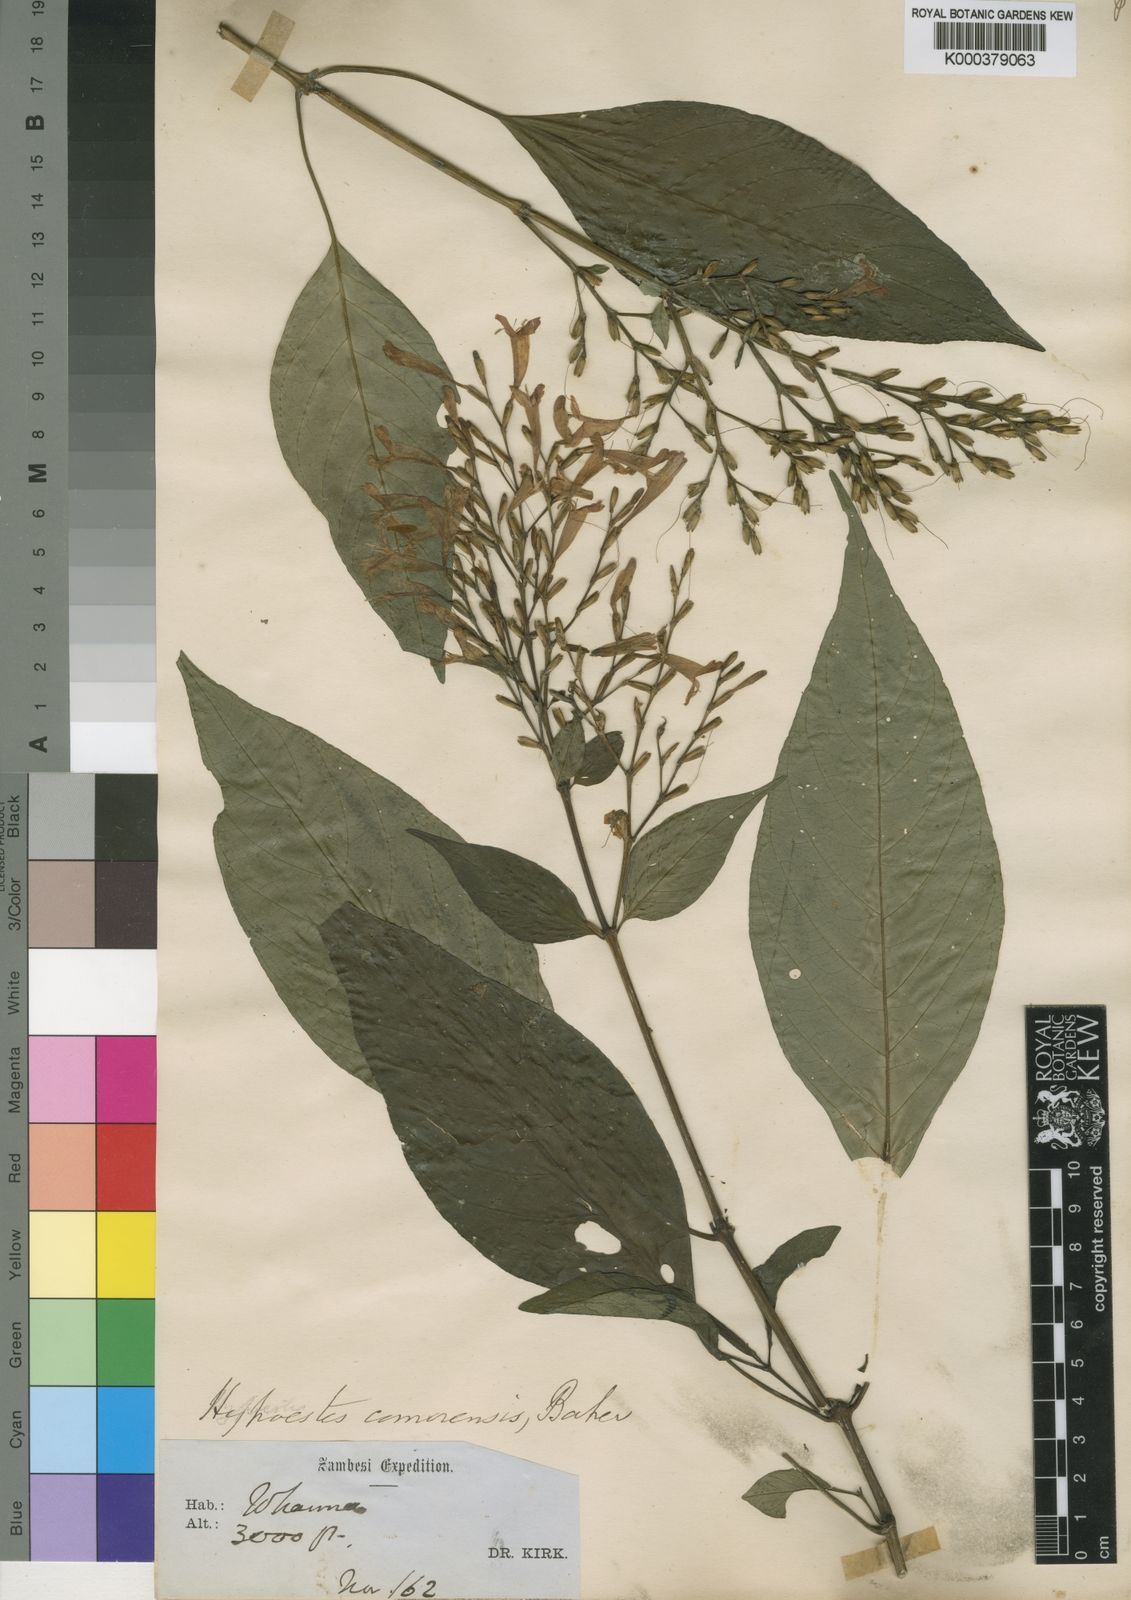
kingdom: Plantae
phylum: Tracheophyta
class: Magnoliopsida
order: Lamiales
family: Acanthaceae
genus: Hypoestes
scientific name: Hypoestes comorensis
